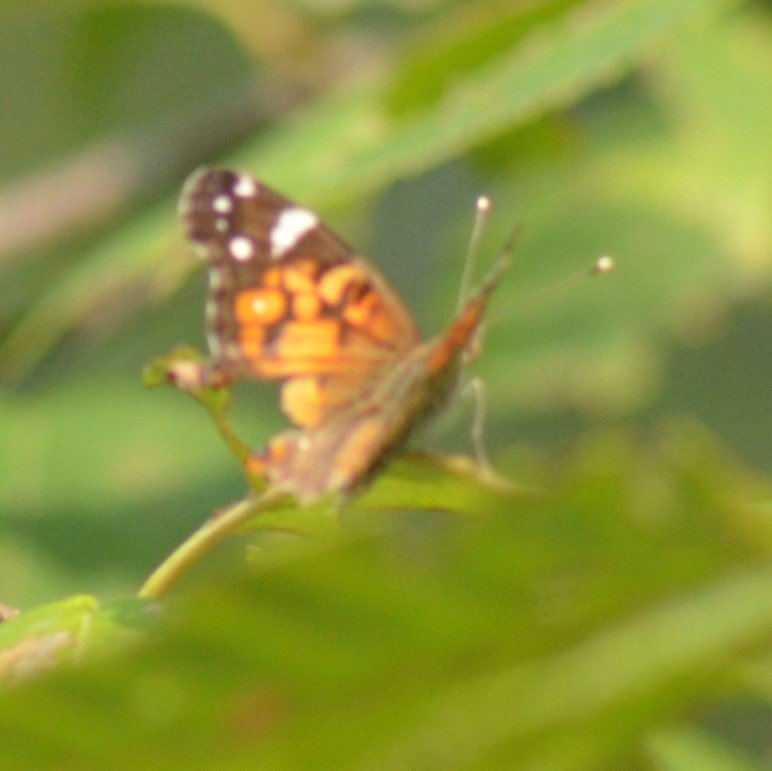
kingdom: Animalia
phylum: Arthropoda
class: Insecta
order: Lepidoptera
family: Nymphalidae
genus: Vanessa
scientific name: Vanessa virginiensis
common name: American Lady
